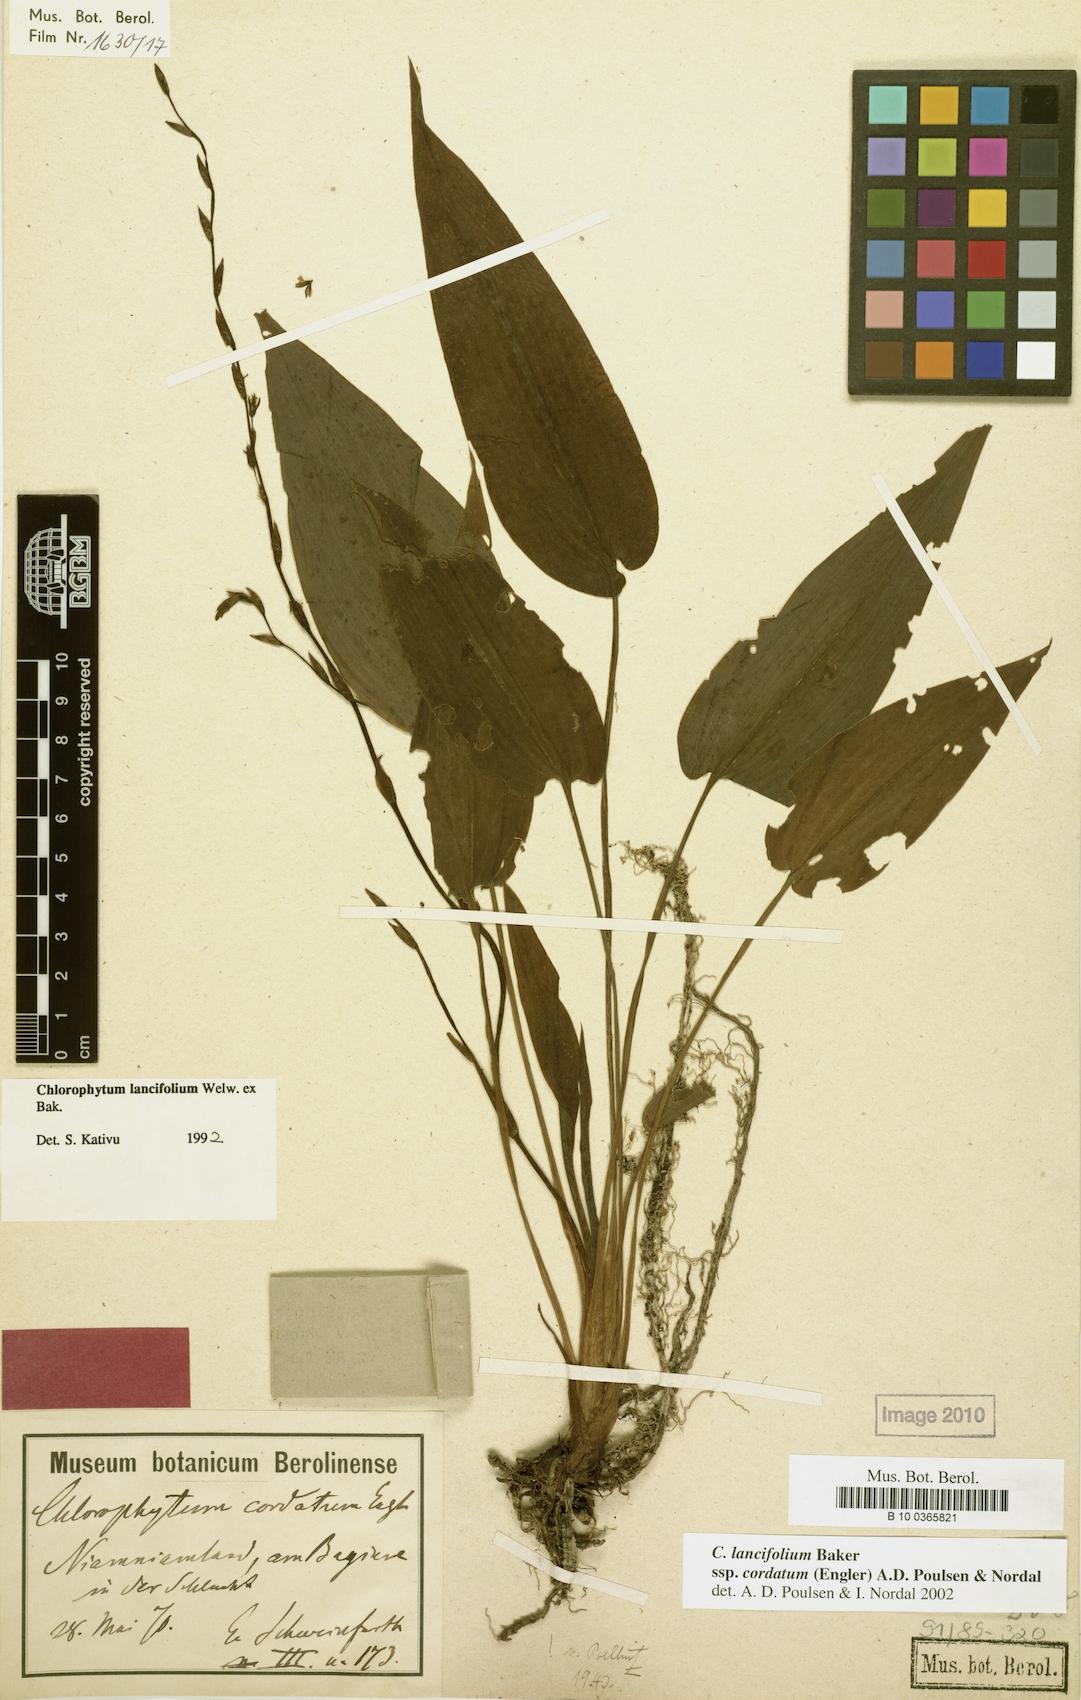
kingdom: Plantae
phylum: Tracheophyta
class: Liliopsida
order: Asparagales
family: Asparagaceae
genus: Chlorophytum
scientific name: Chlorophytum lancifolium
